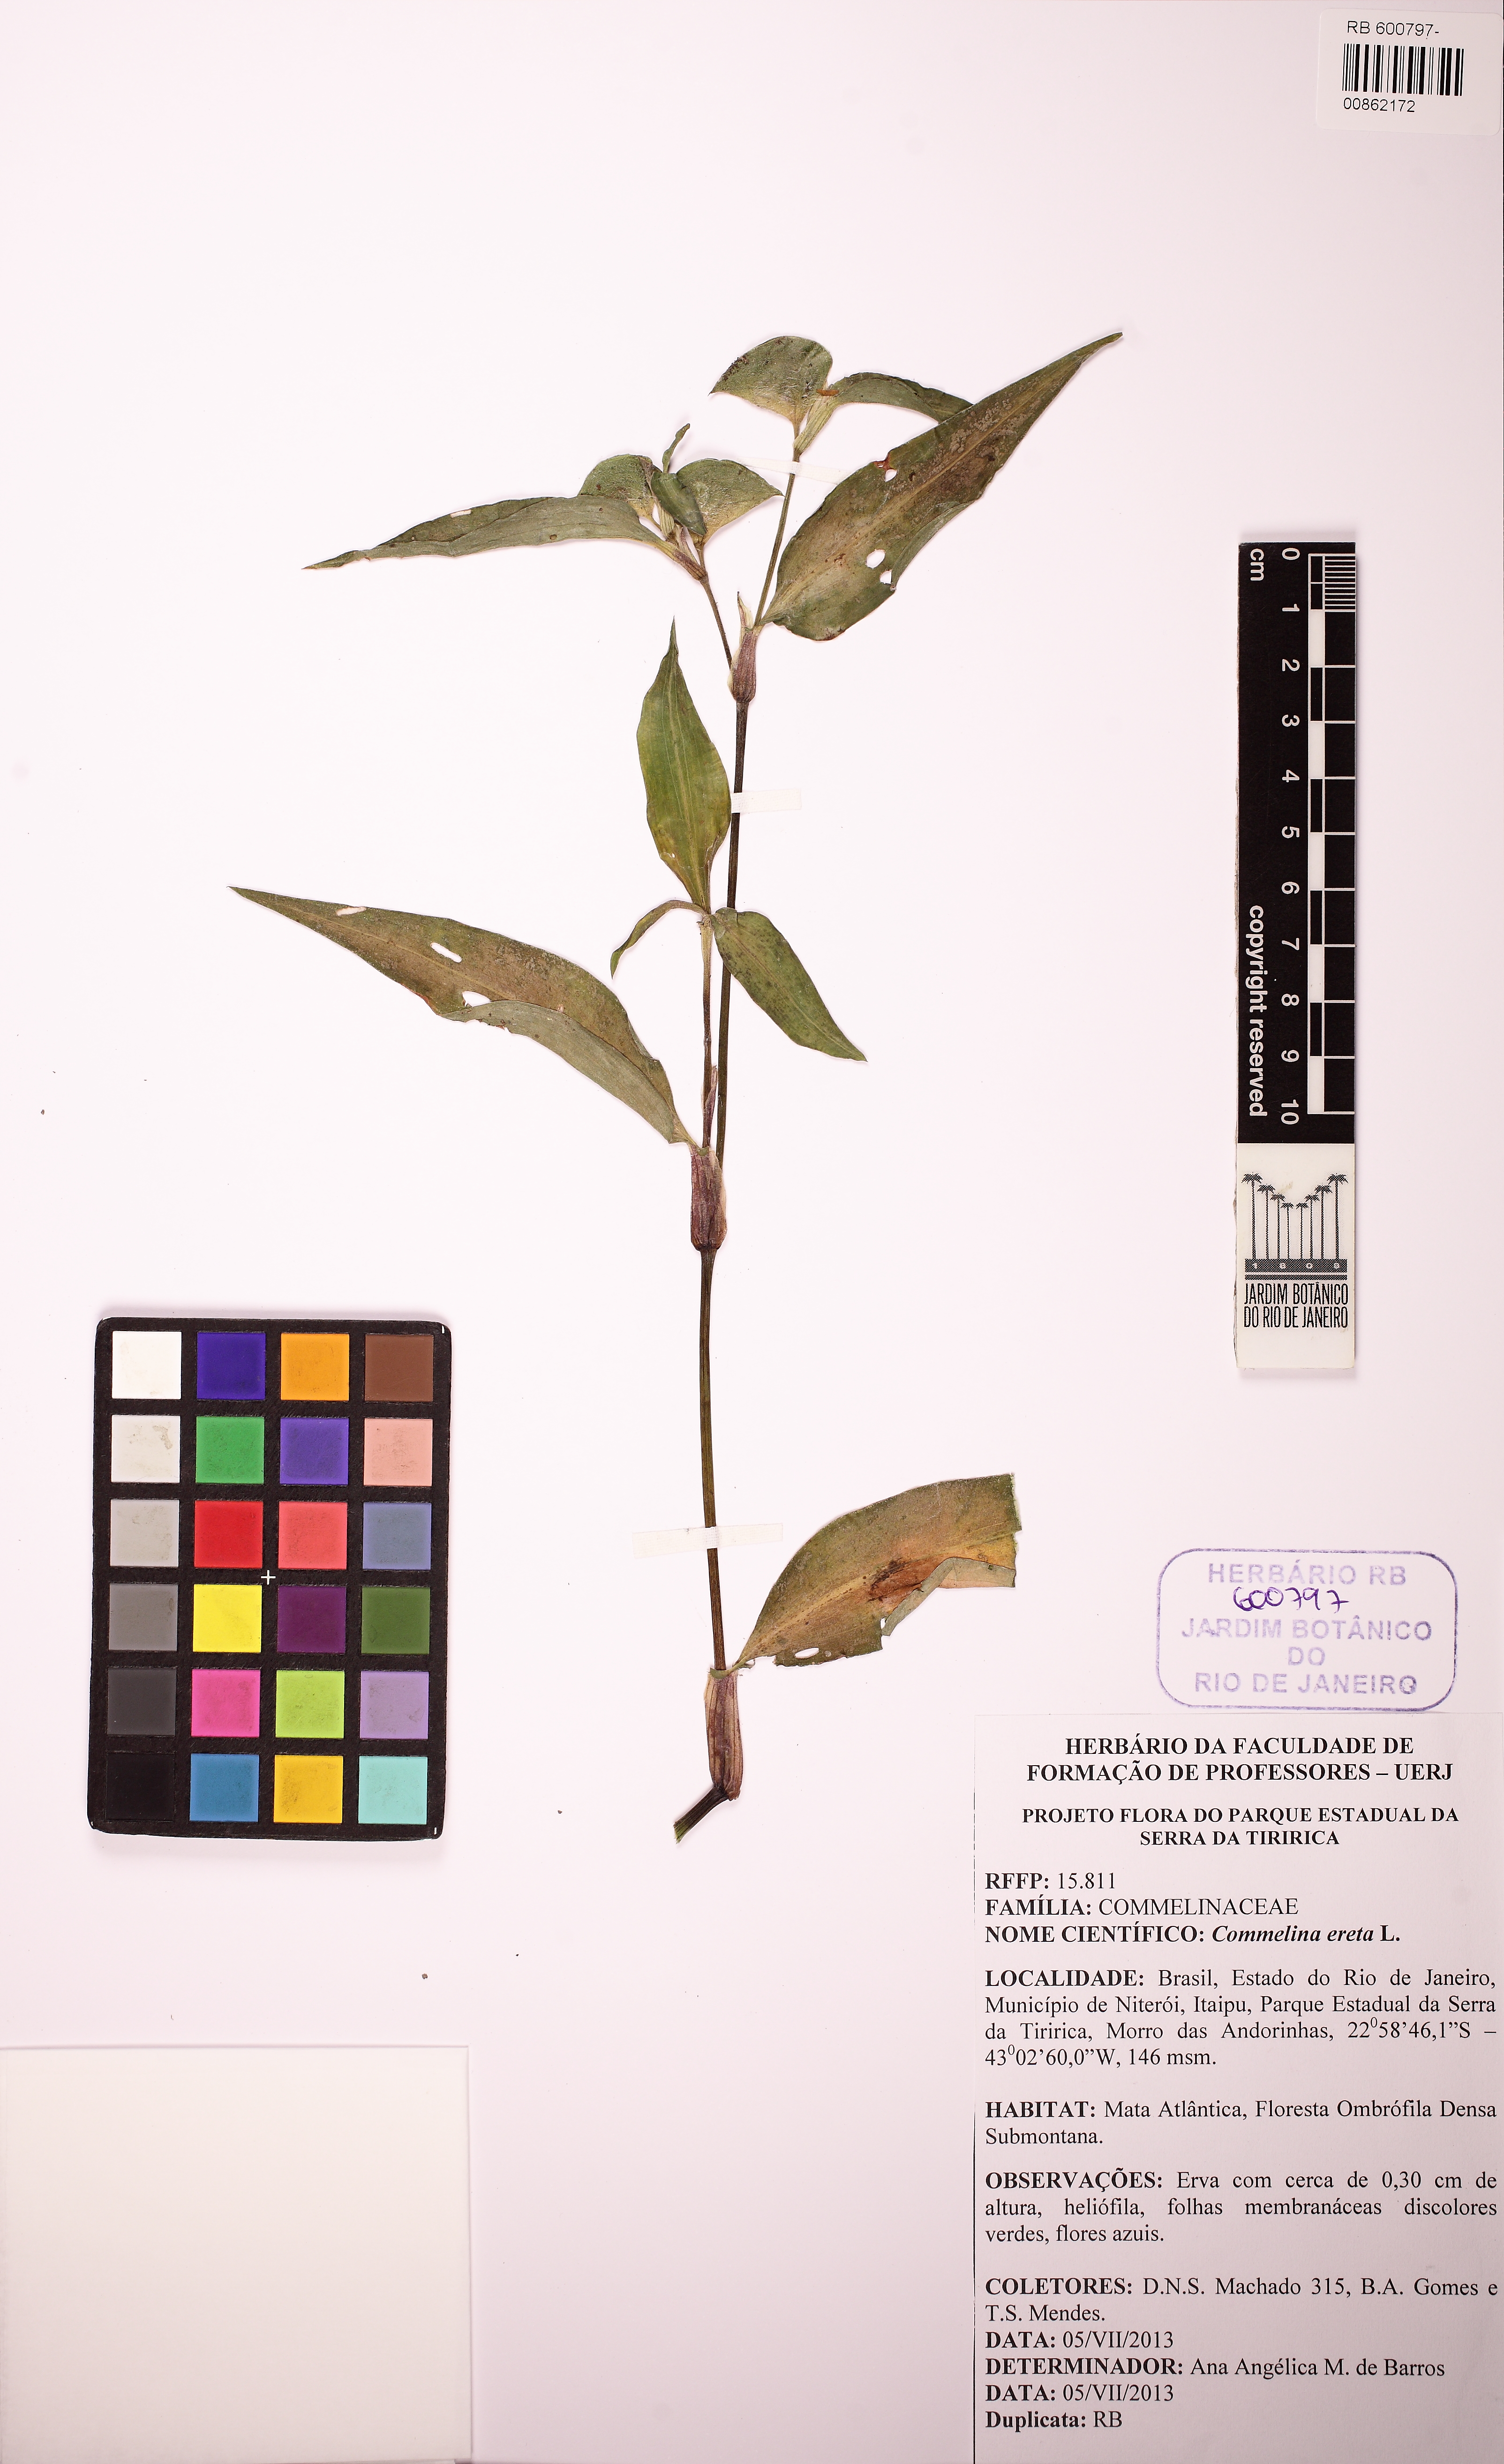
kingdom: Plantae
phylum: Tracheophyta
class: Liliopsida
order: Commelinales
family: Commelinaceae
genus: Commelina
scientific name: Commelina erecta
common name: Blousel blommetjie
